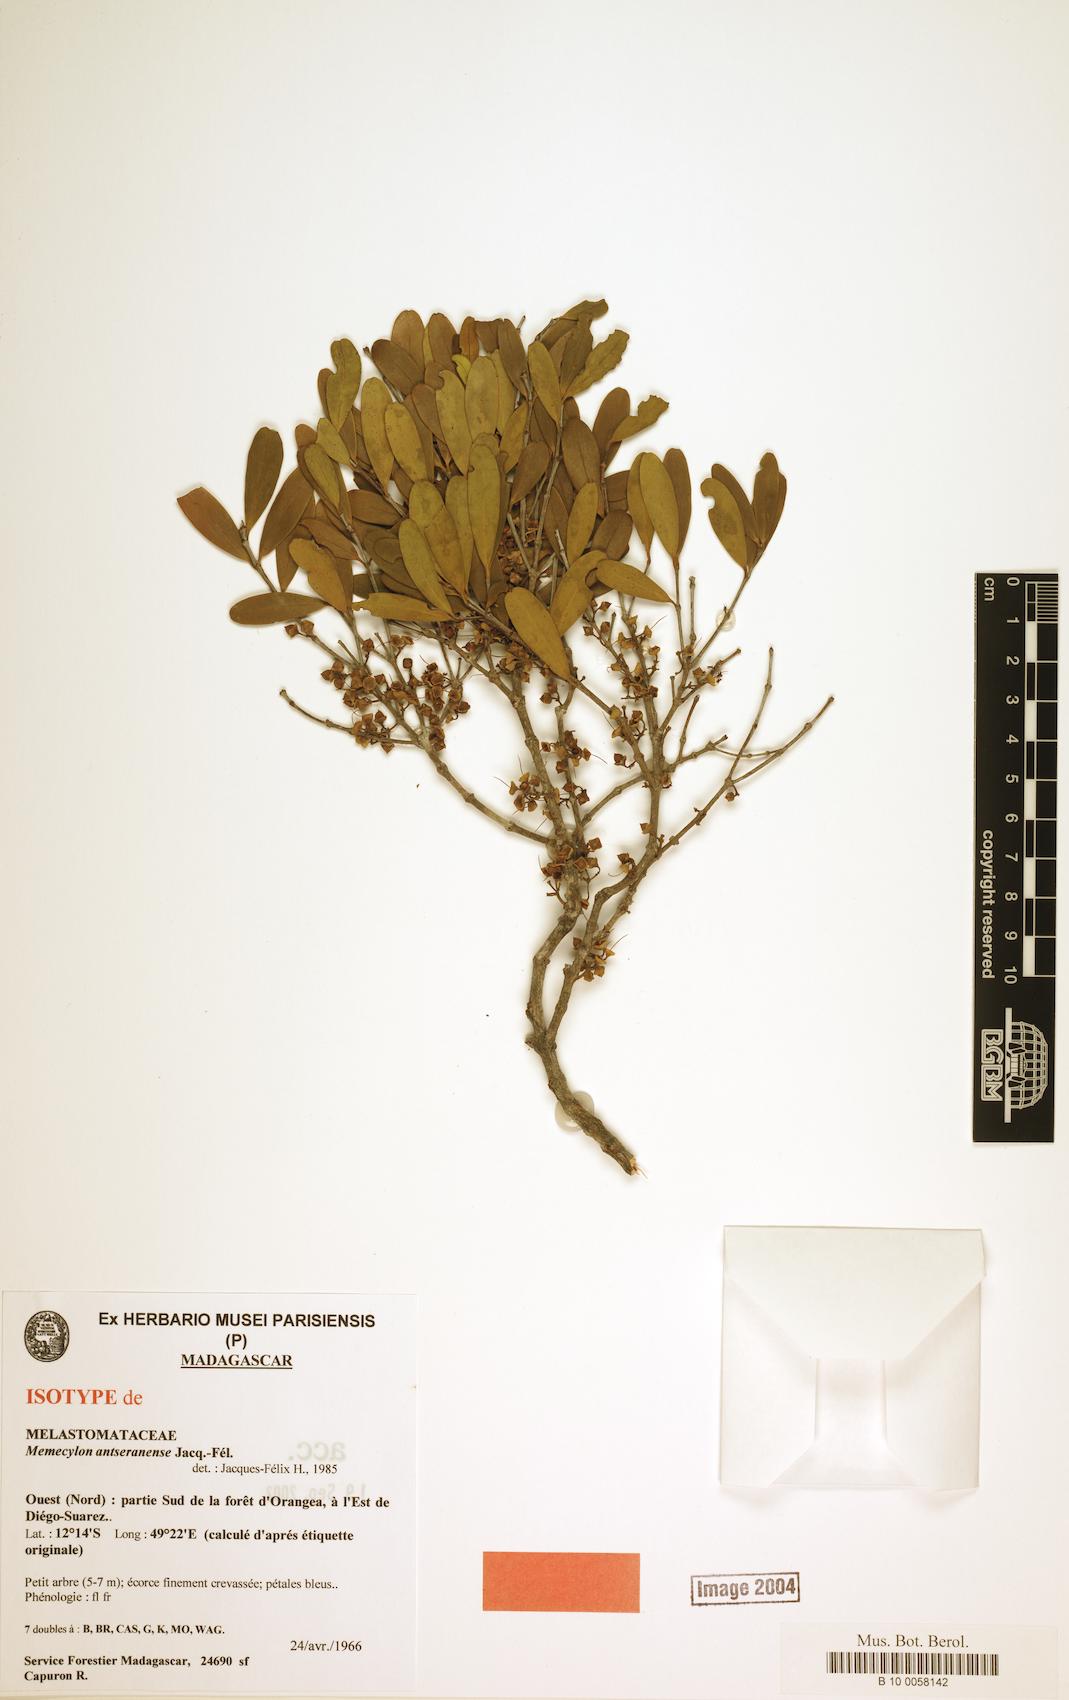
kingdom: Plantae
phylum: Tracheophyta
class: Magnoliopsida
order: Myrtales
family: Melastomataceae
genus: Memecylon
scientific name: Memecylon antseranense
